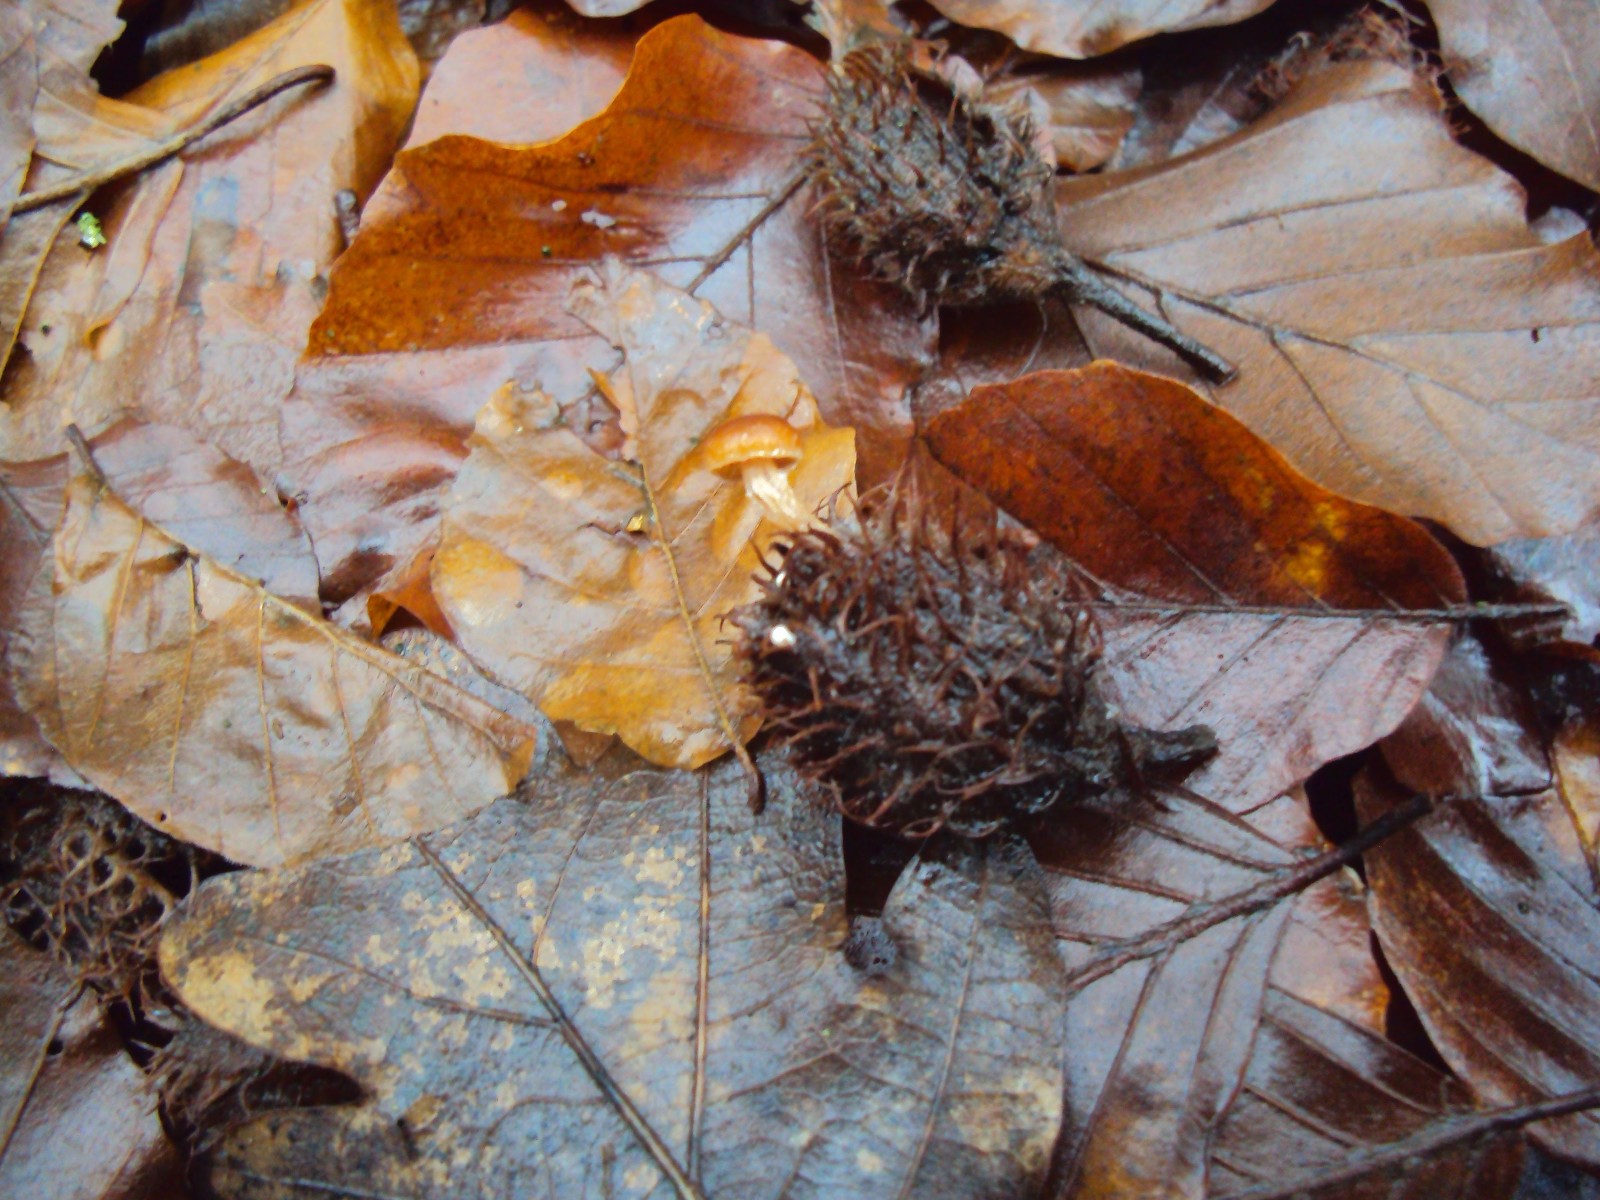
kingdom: Fungi
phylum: Basidiomycota
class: Agaricomycetes
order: Agaricales
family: Tubariaceae
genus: Tubaria
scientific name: Tubaria furfuracea
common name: kliddet fnughat
